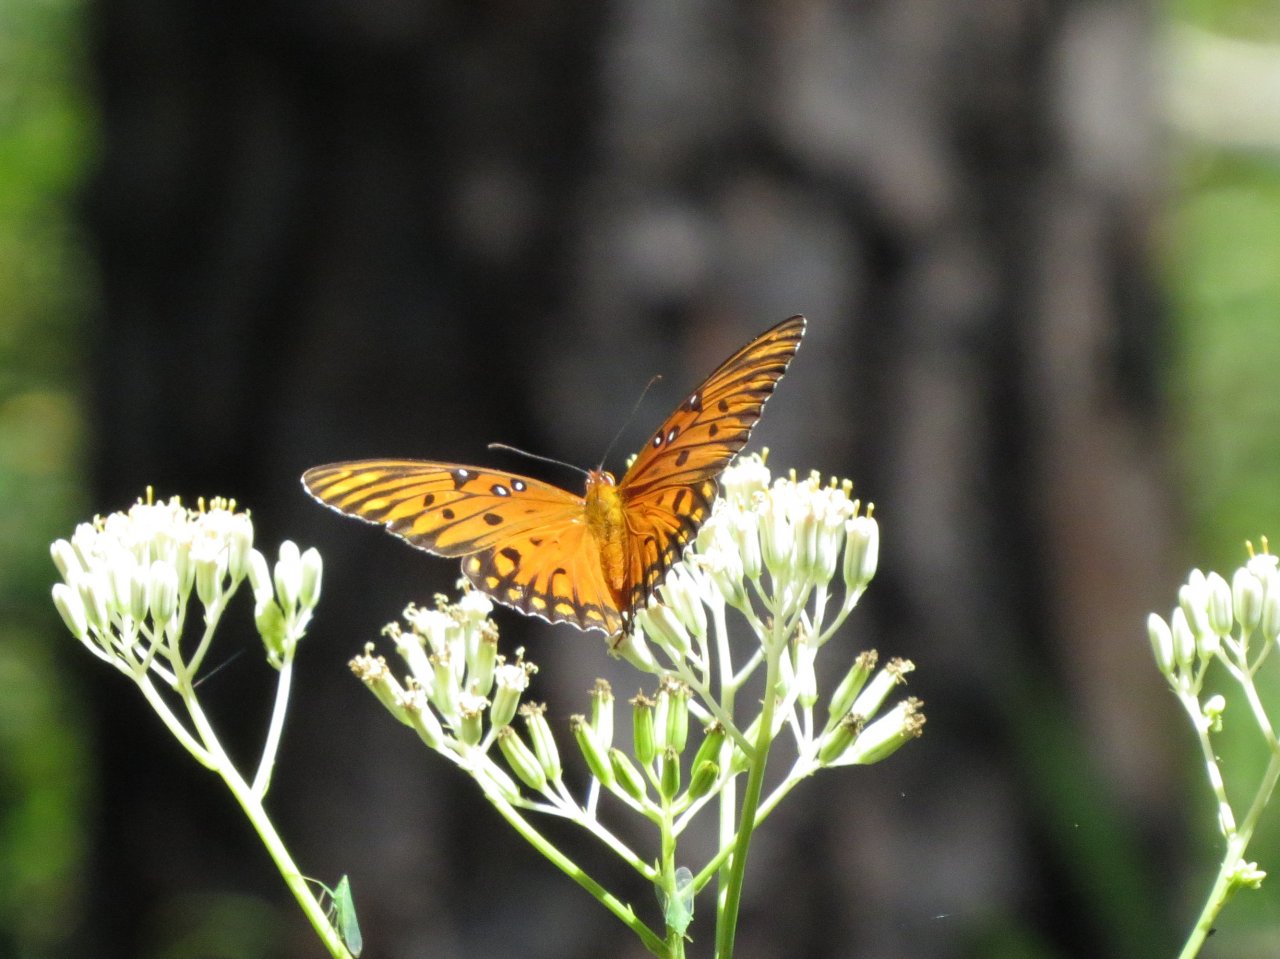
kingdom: Animalia
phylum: Arthropoda
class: Insecta
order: Lepidoptera
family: Nymphalidae
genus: Dione
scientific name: Dione vanillae
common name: Gulf Fritillary
